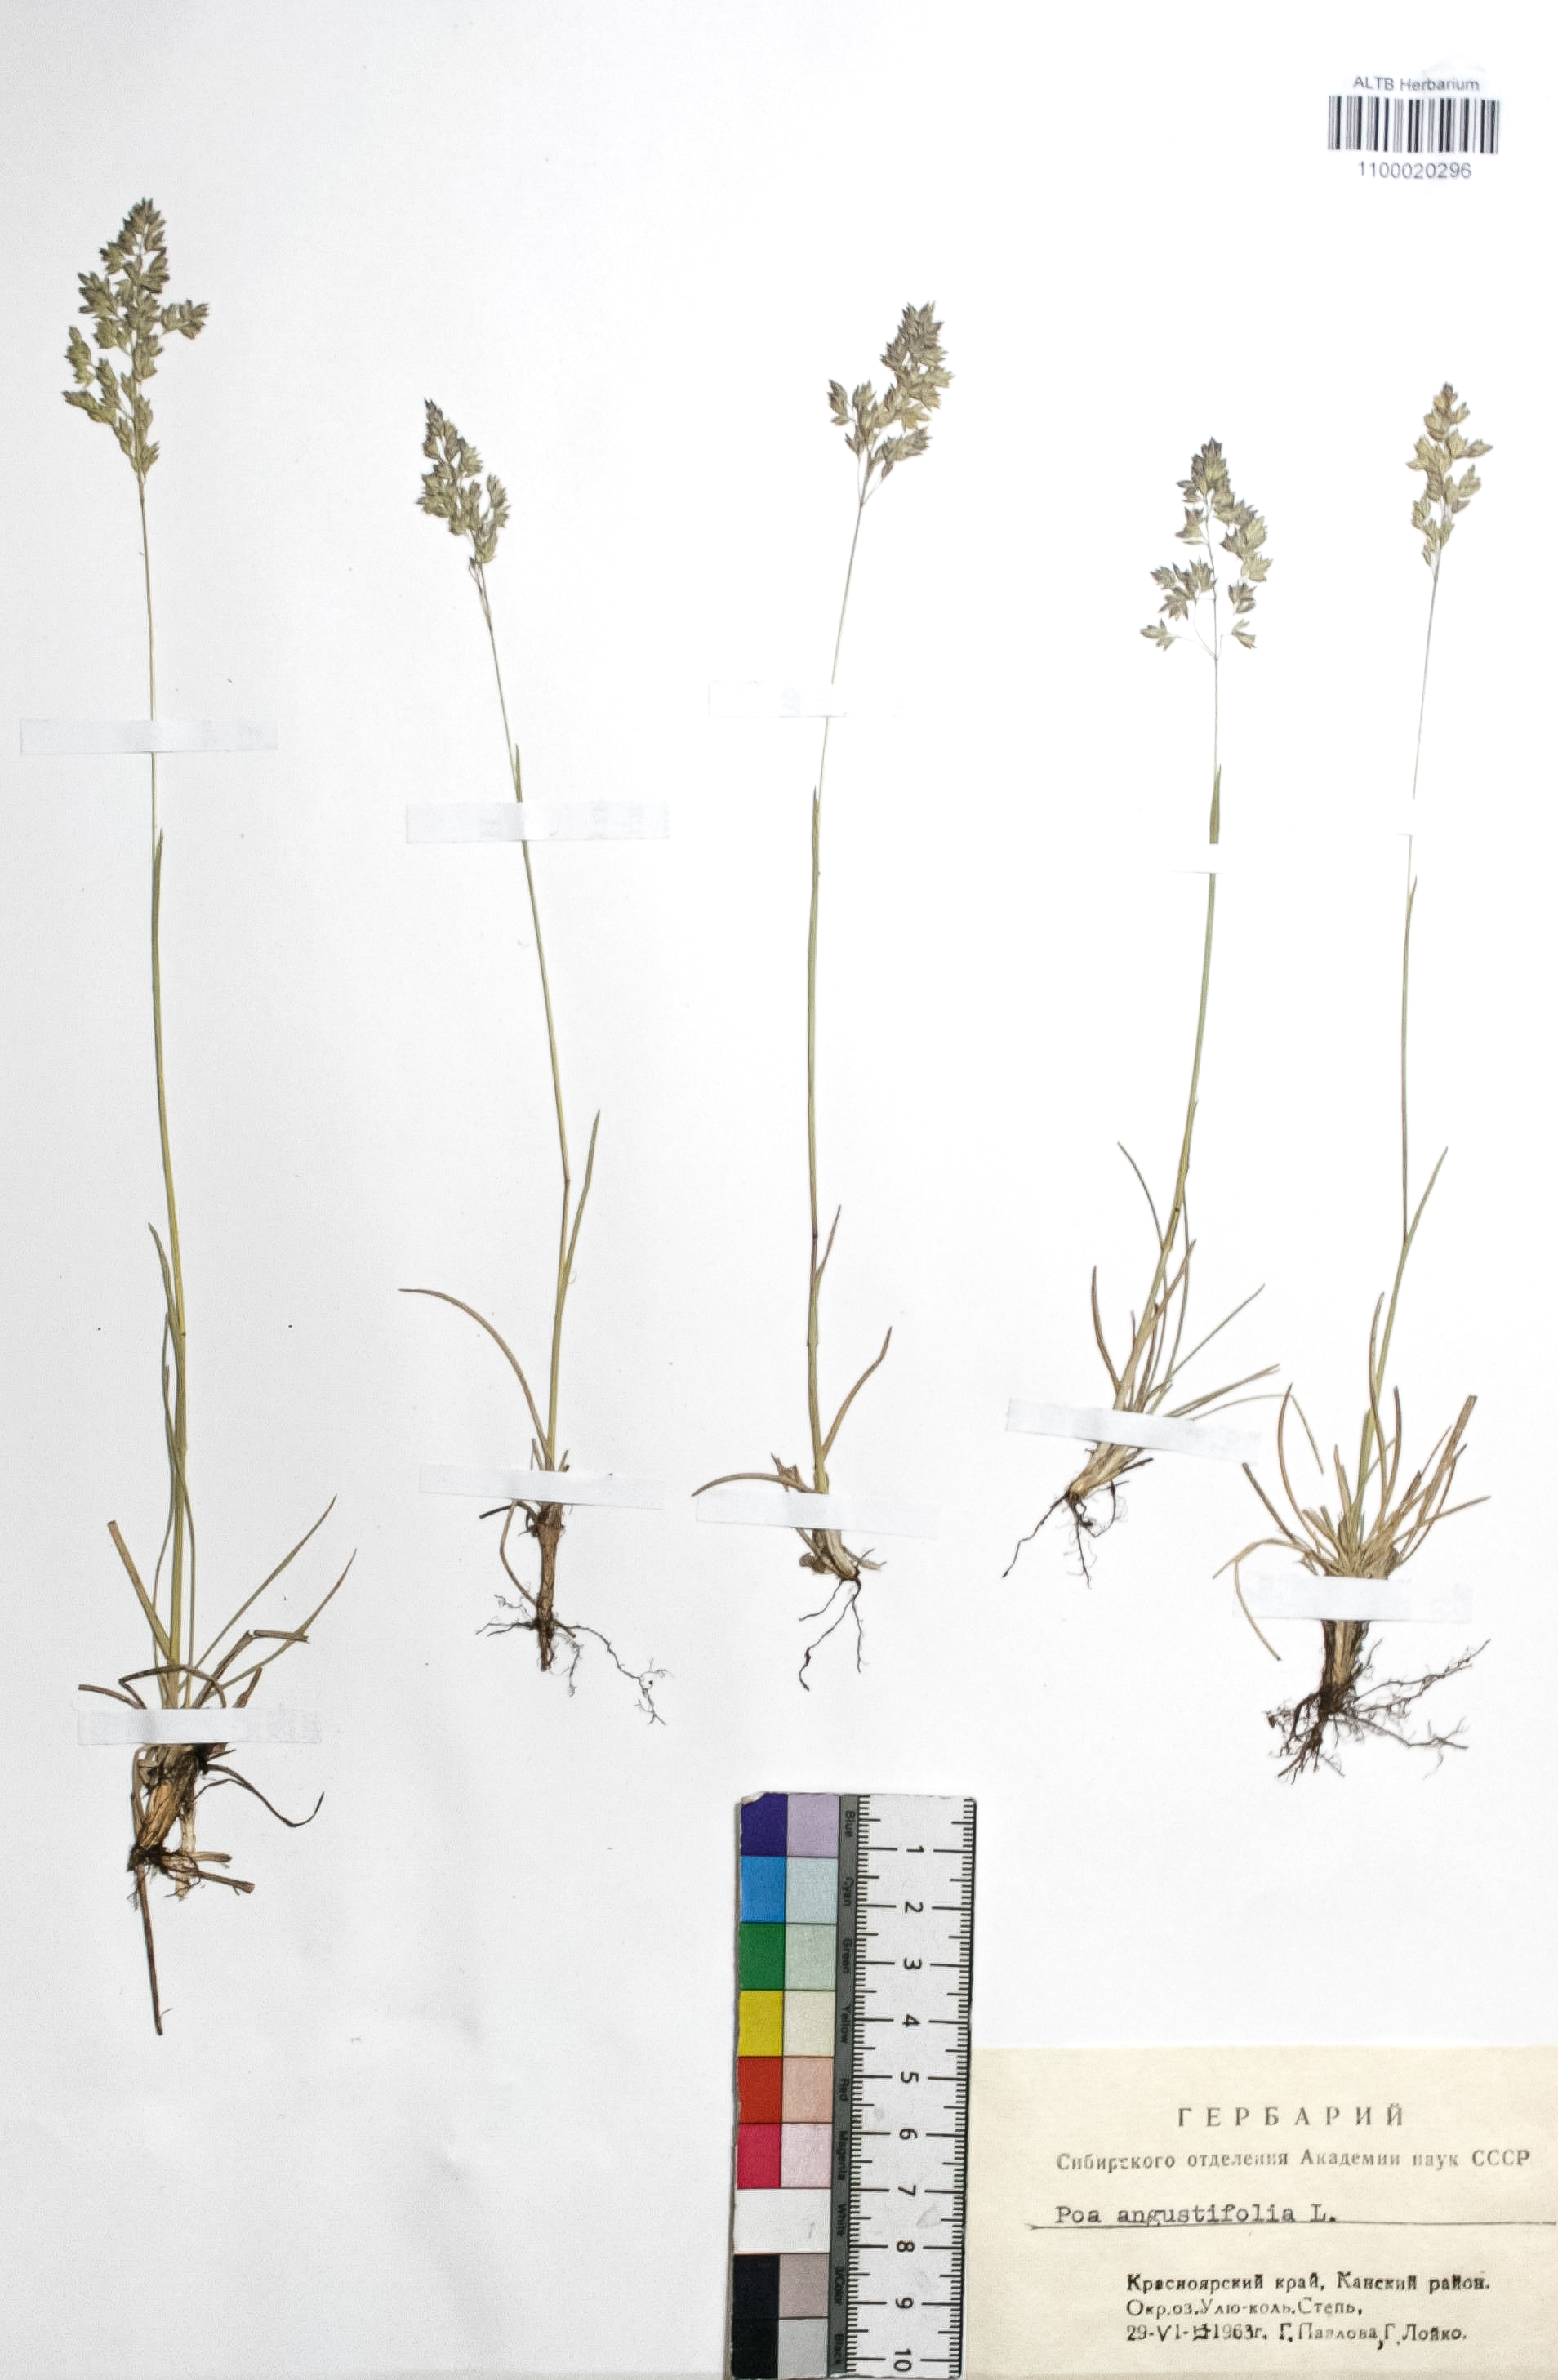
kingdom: Plantae
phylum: Tracheophyta
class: Liliopsida
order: Poales
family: Poaceae
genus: Poa
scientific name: Poa angustifolia
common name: Narrow-leaved meadow-grass
